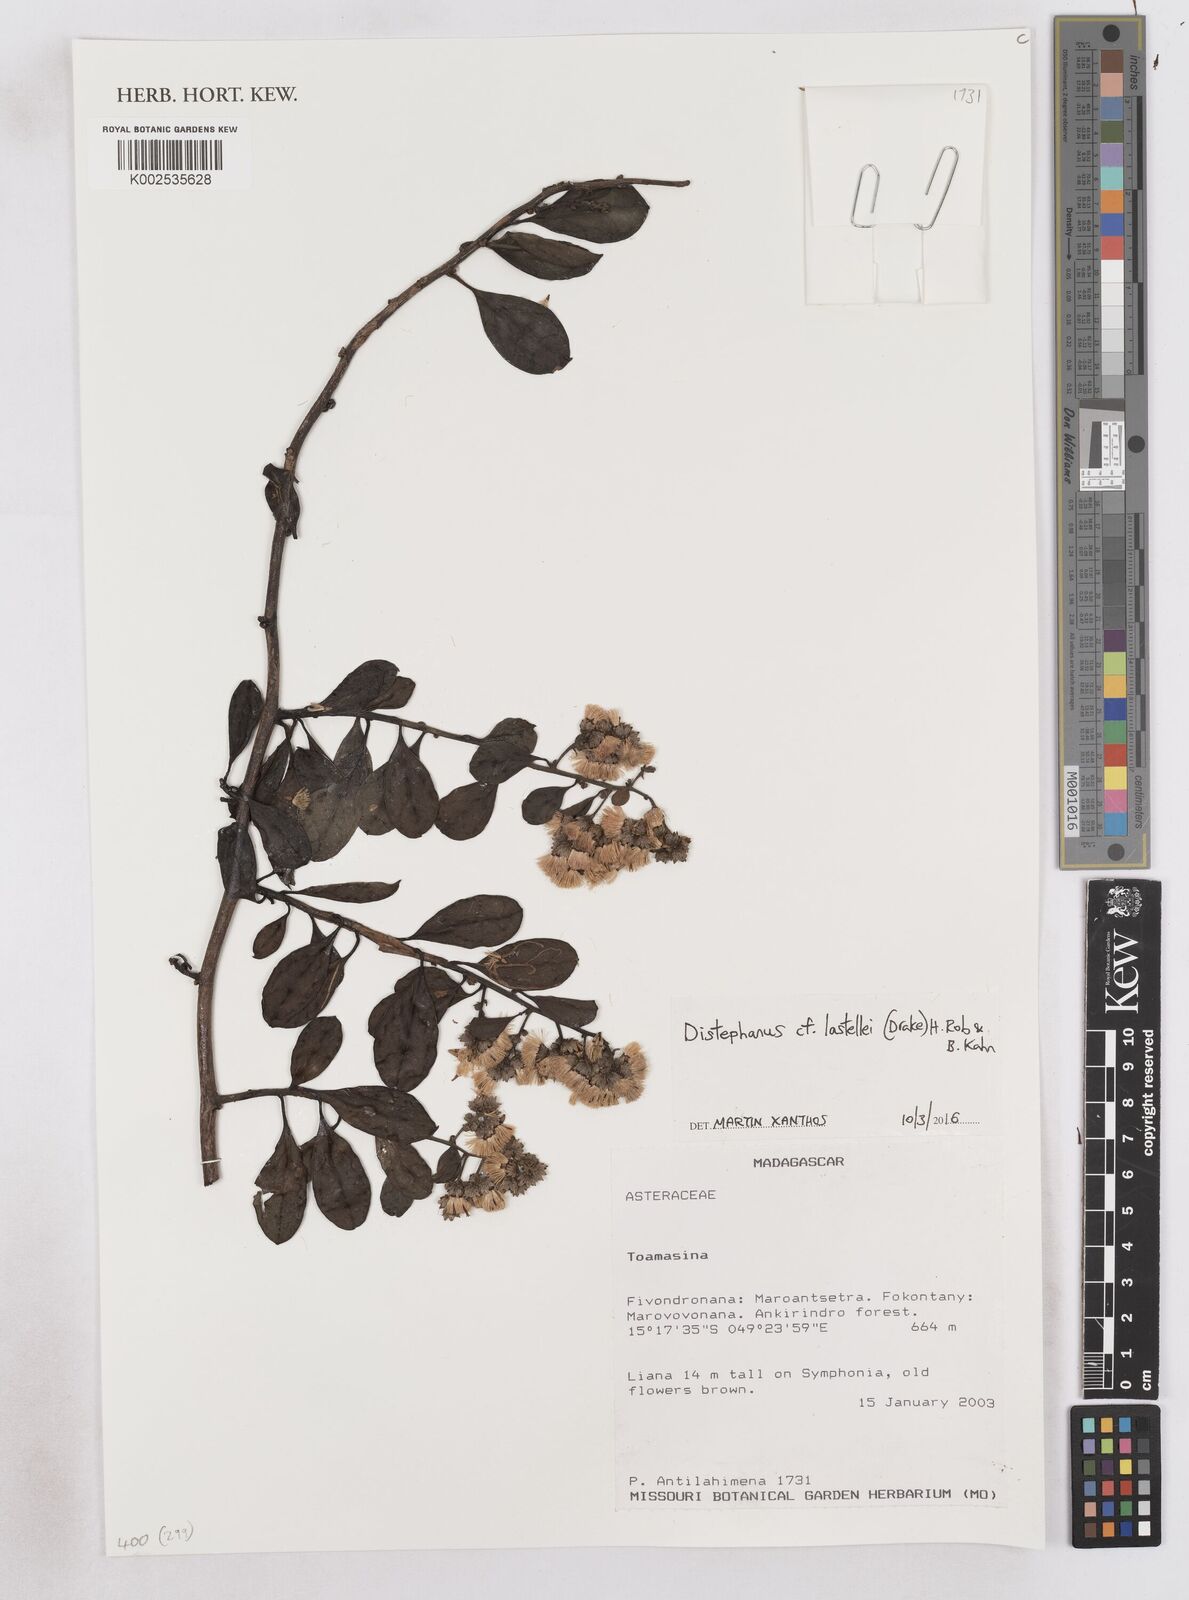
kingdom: Plantae
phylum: Tracheophyta
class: Magnoliopsida
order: Asterales
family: Asteraceae
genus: Distephanus
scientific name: Distephanus lastellei
